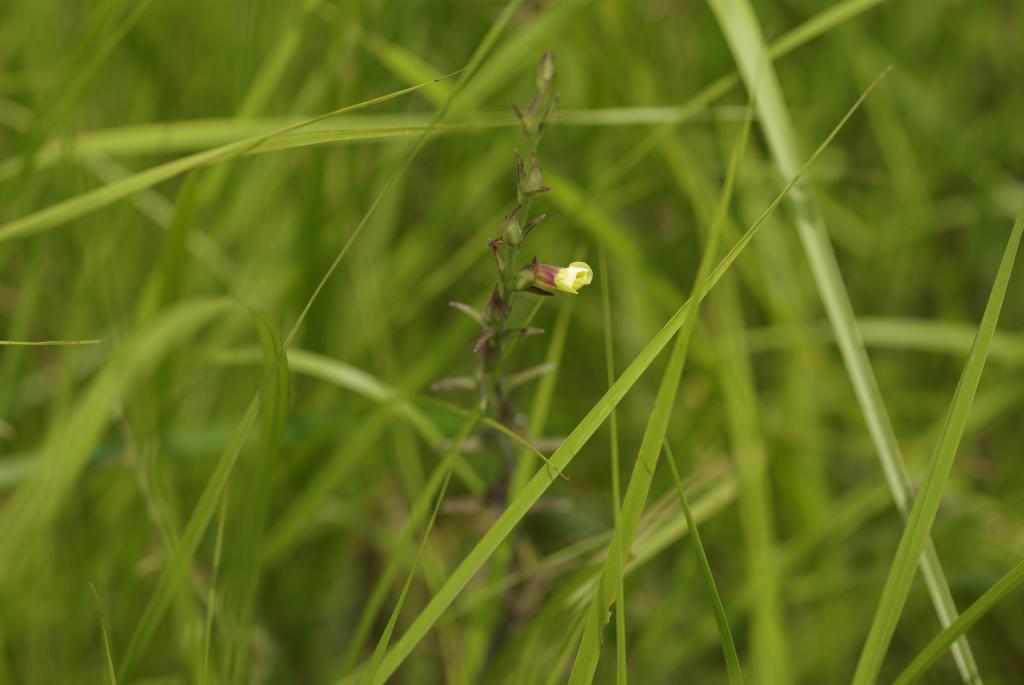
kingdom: Plantae
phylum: Tracheophyta
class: Magnoliopsida
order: Lamiales
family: Orobanchaceae
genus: Centranthera
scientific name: Centranthera cochinchinensis
